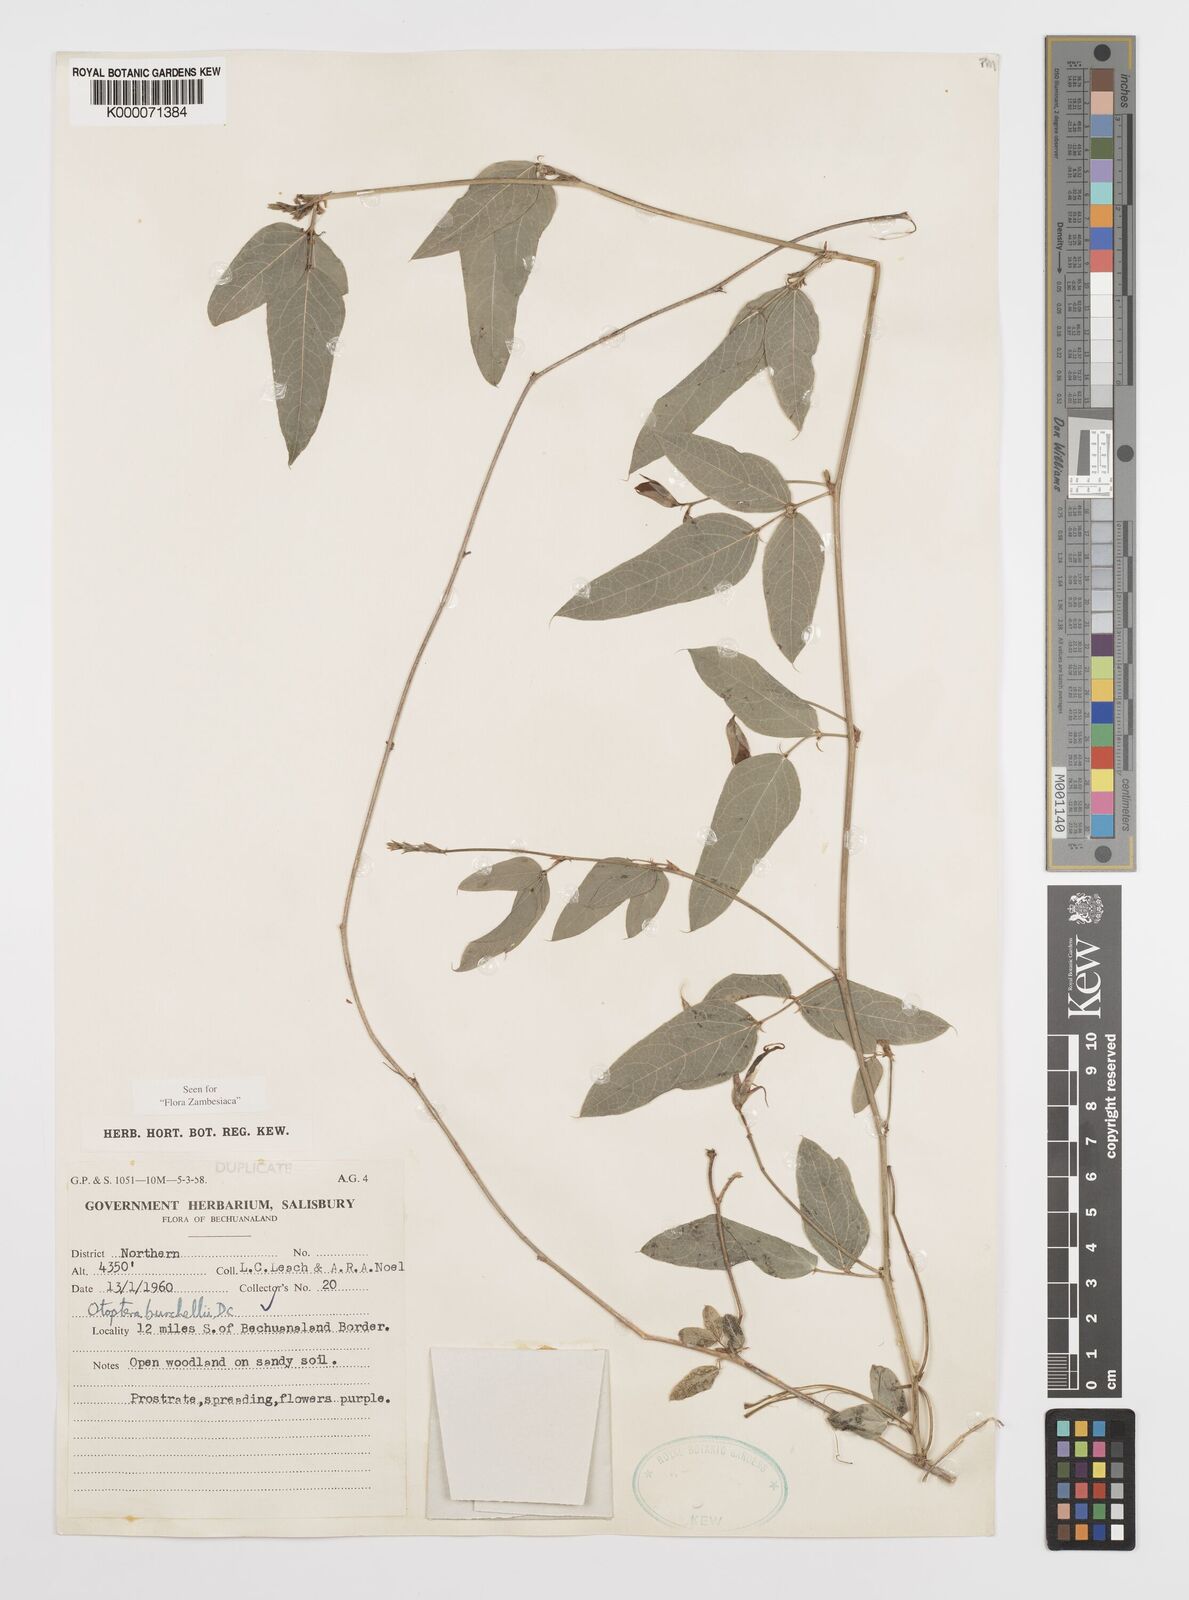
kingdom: Plantae
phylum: Tracheophyta
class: Magnoliopsida
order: Fabales
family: Fabaceae
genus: Otoptera
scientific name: Otoptera burchellii
